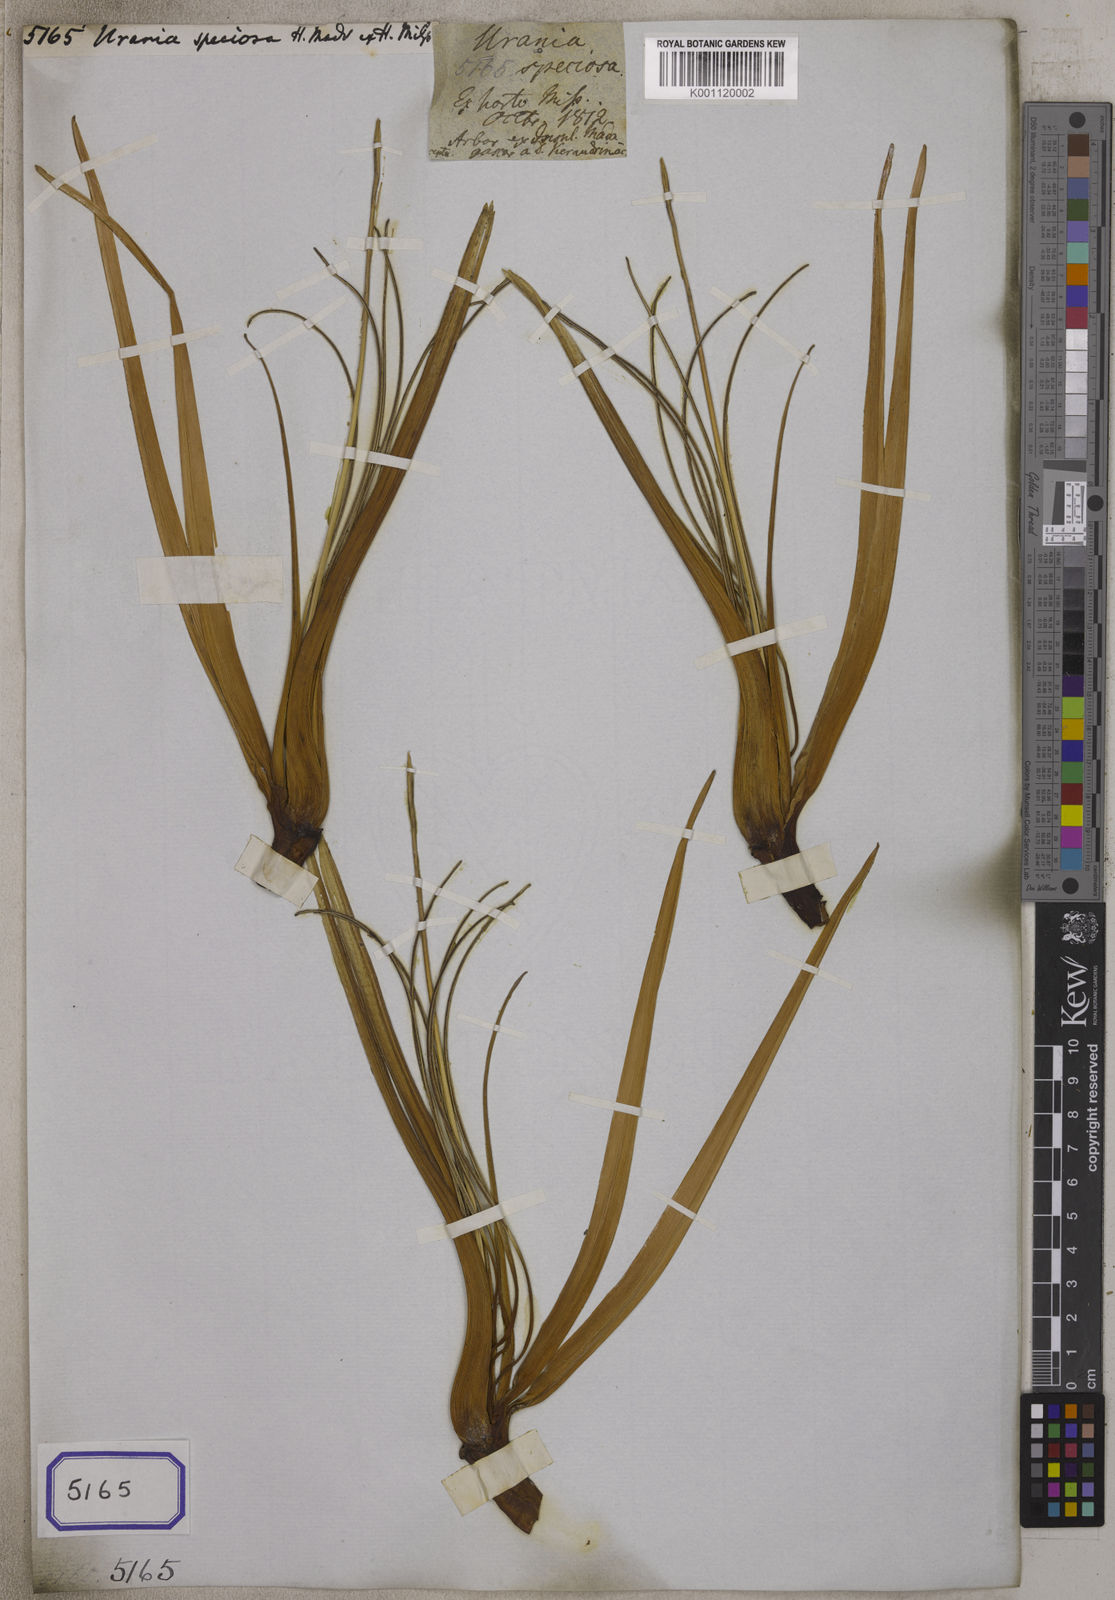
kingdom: Plantae
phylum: Tracheophyta
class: Liliopsida
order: Zingiberales
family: Strelitziaceae
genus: Ravenala
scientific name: Ravenala madagascariensis
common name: Traveler's-palm
